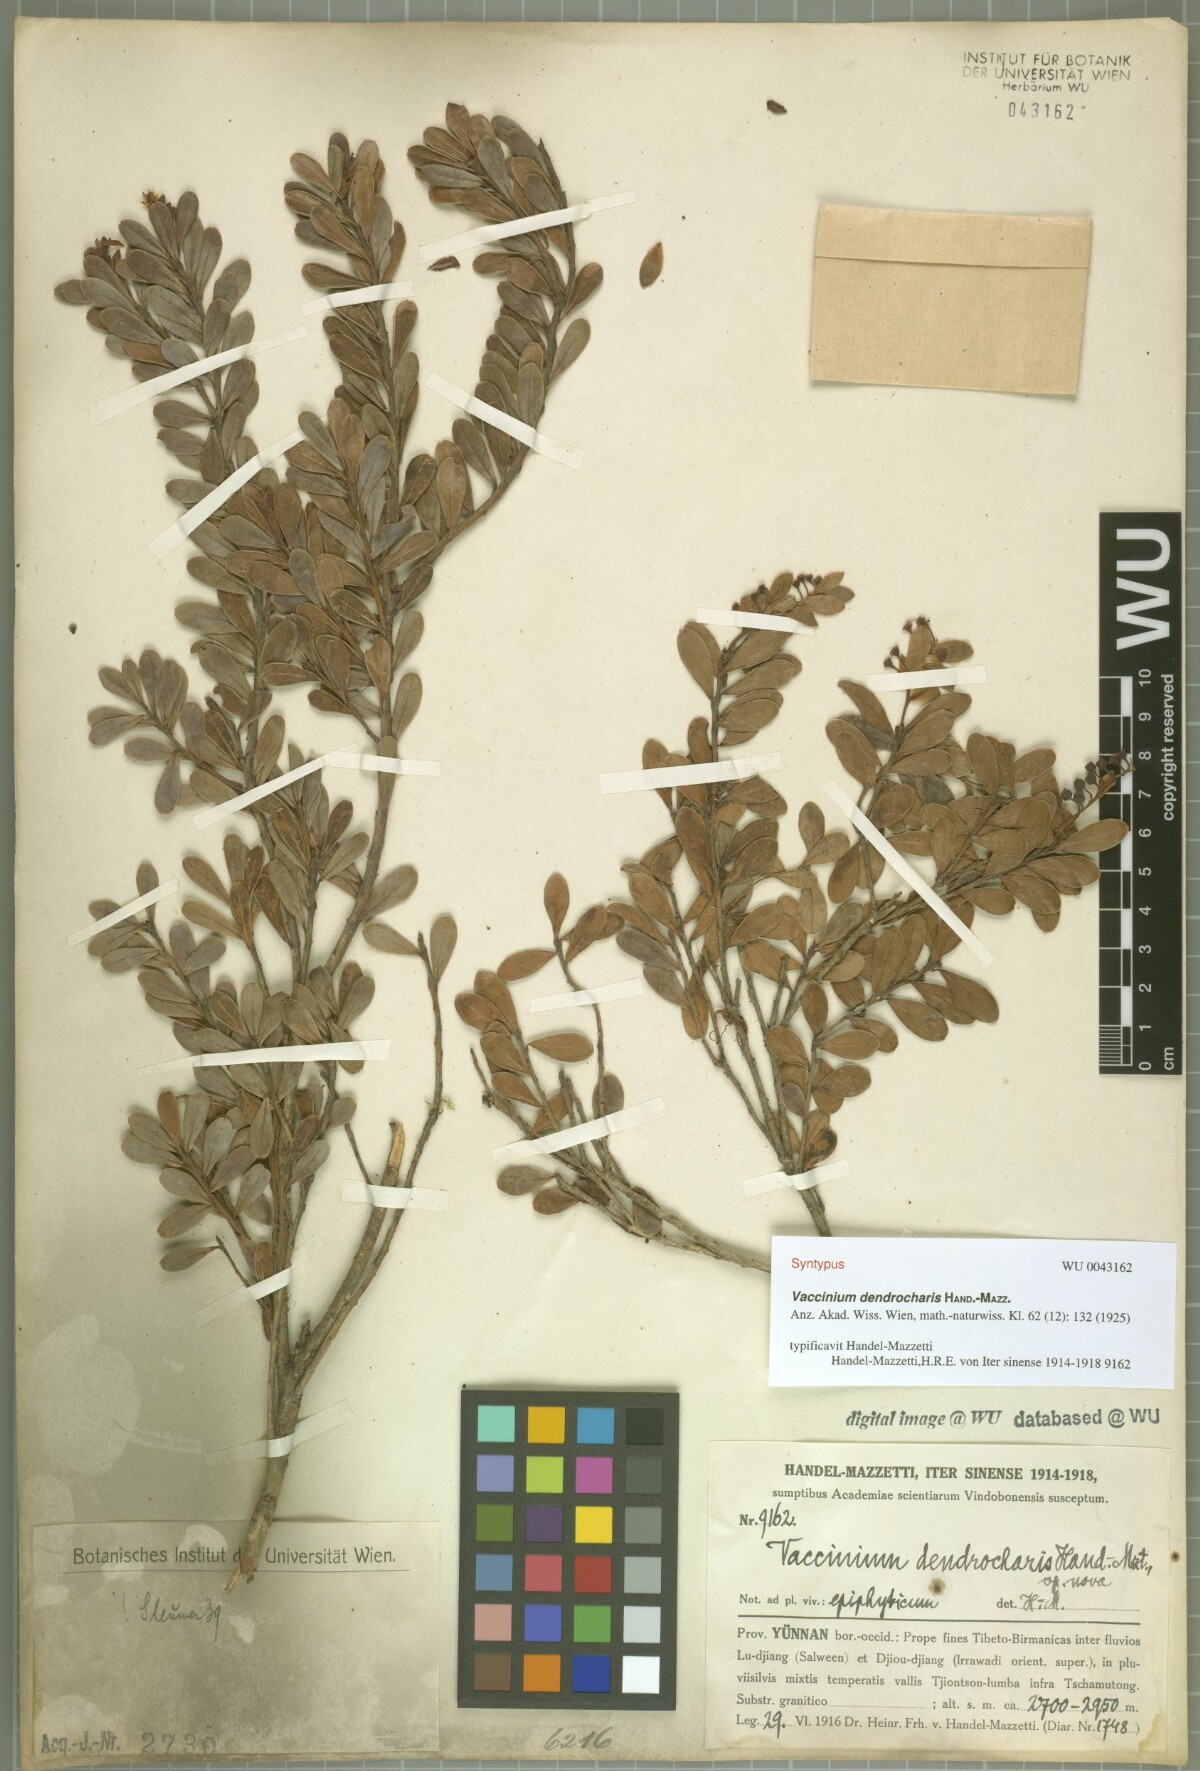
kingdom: Plantae
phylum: Tracheophyta
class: Magnoliopsida
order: Ericales
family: Ericaceae
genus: Vaccinium
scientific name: Vaccinium dendrocharis
